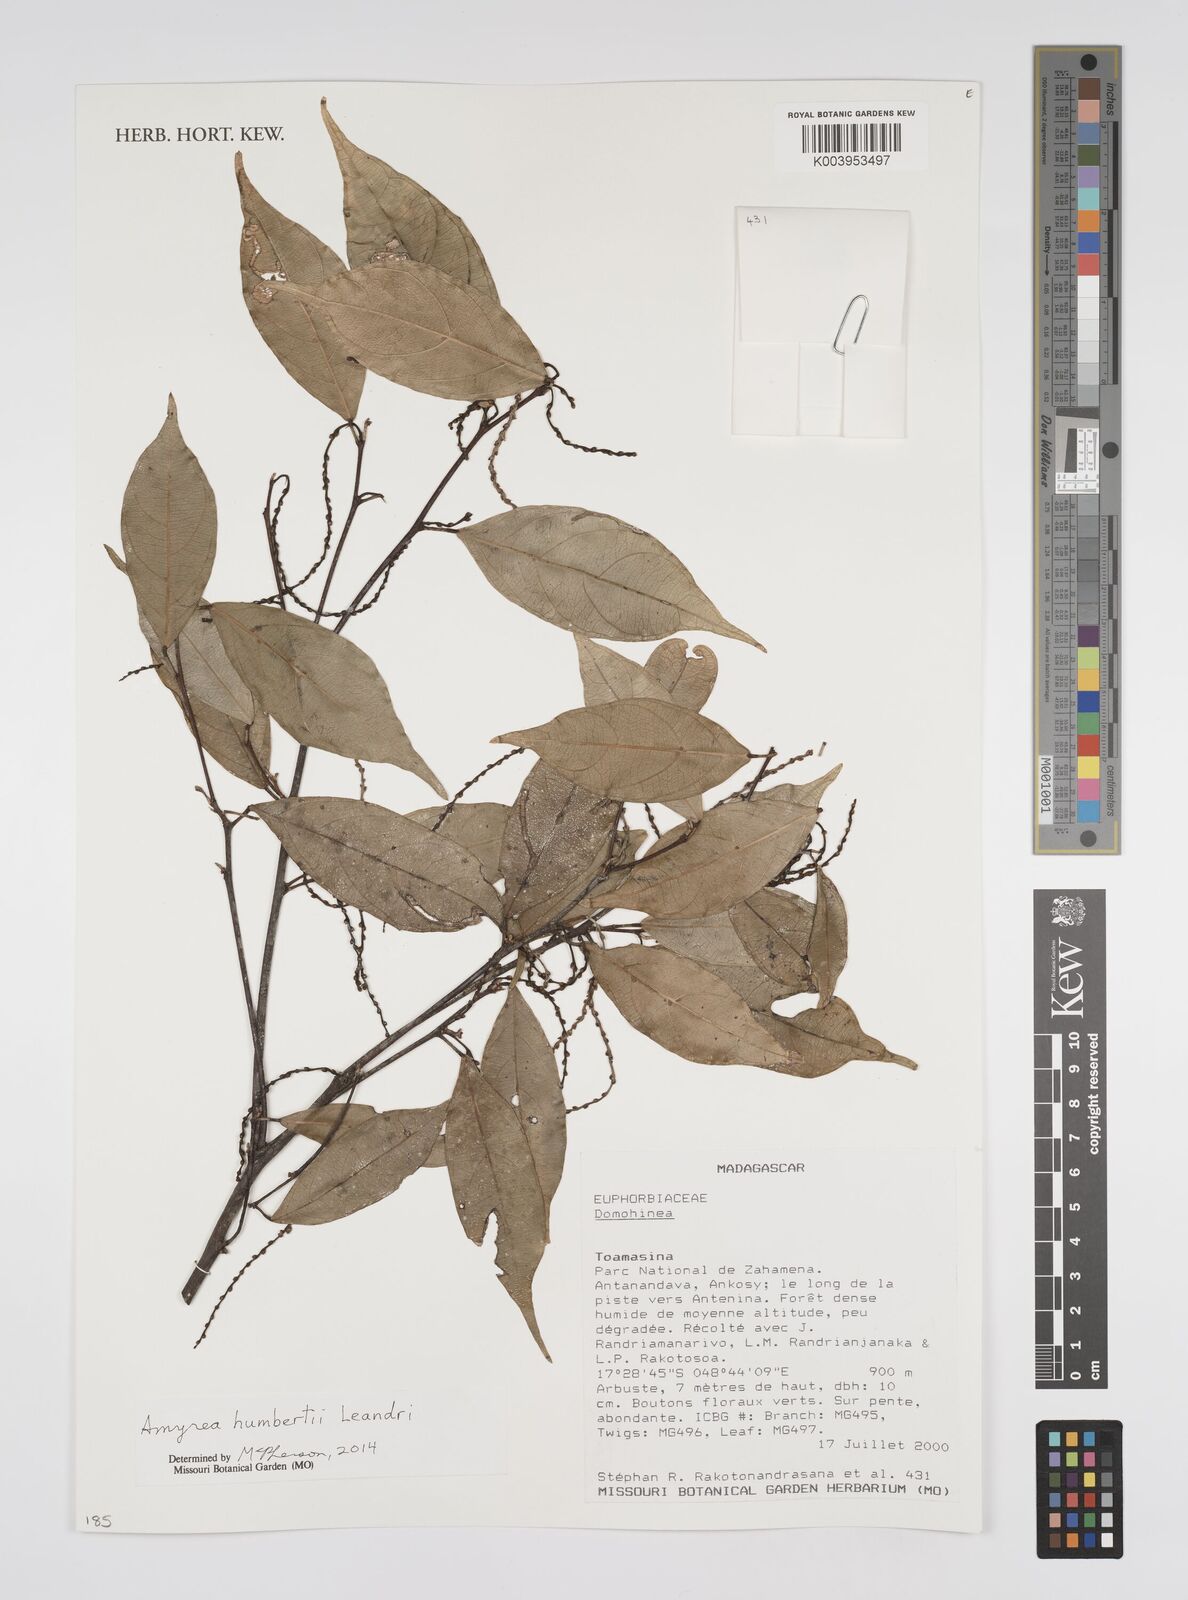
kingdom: Plantae
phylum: Tracheophyta
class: Magnoliopsida
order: Malpighiales
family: Euphorbiaceae
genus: Amyrea
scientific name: Amyrea humbertii
